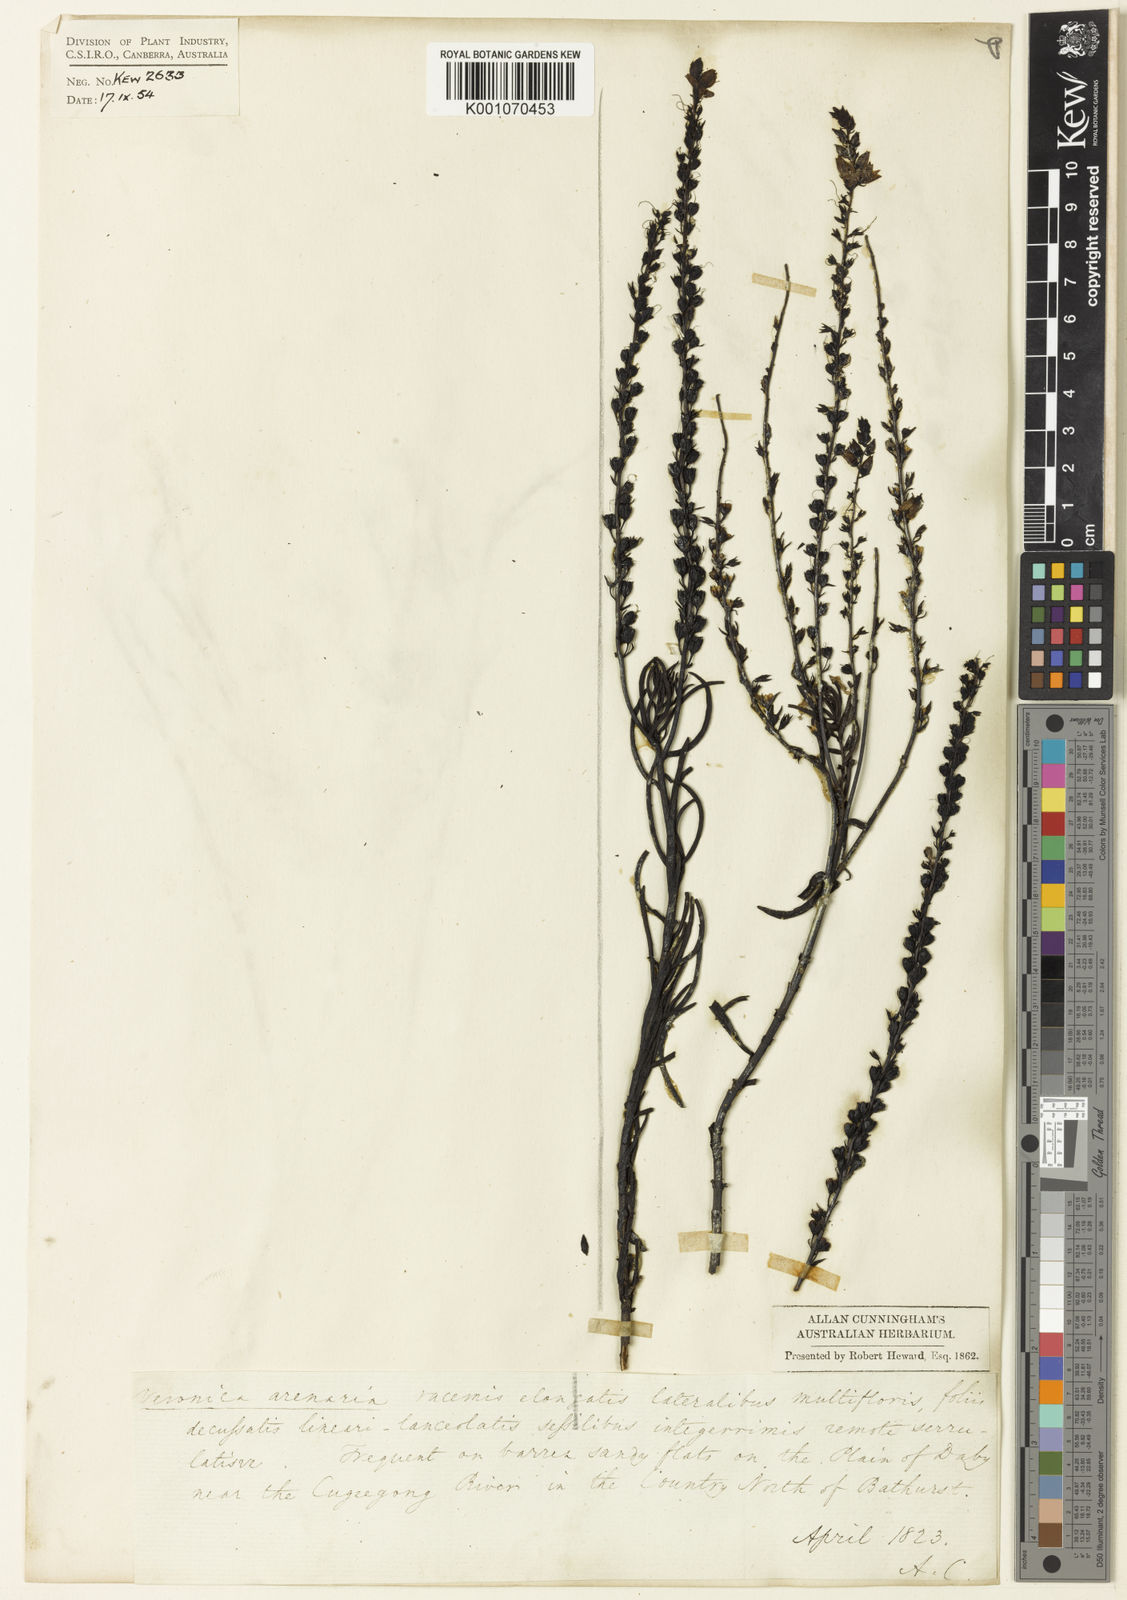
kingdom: Plantae
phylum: Tracheophyta
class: Magnoliopsida
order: Lamiales
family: Plantaginaceae
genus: Veronica
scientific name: Veronica
